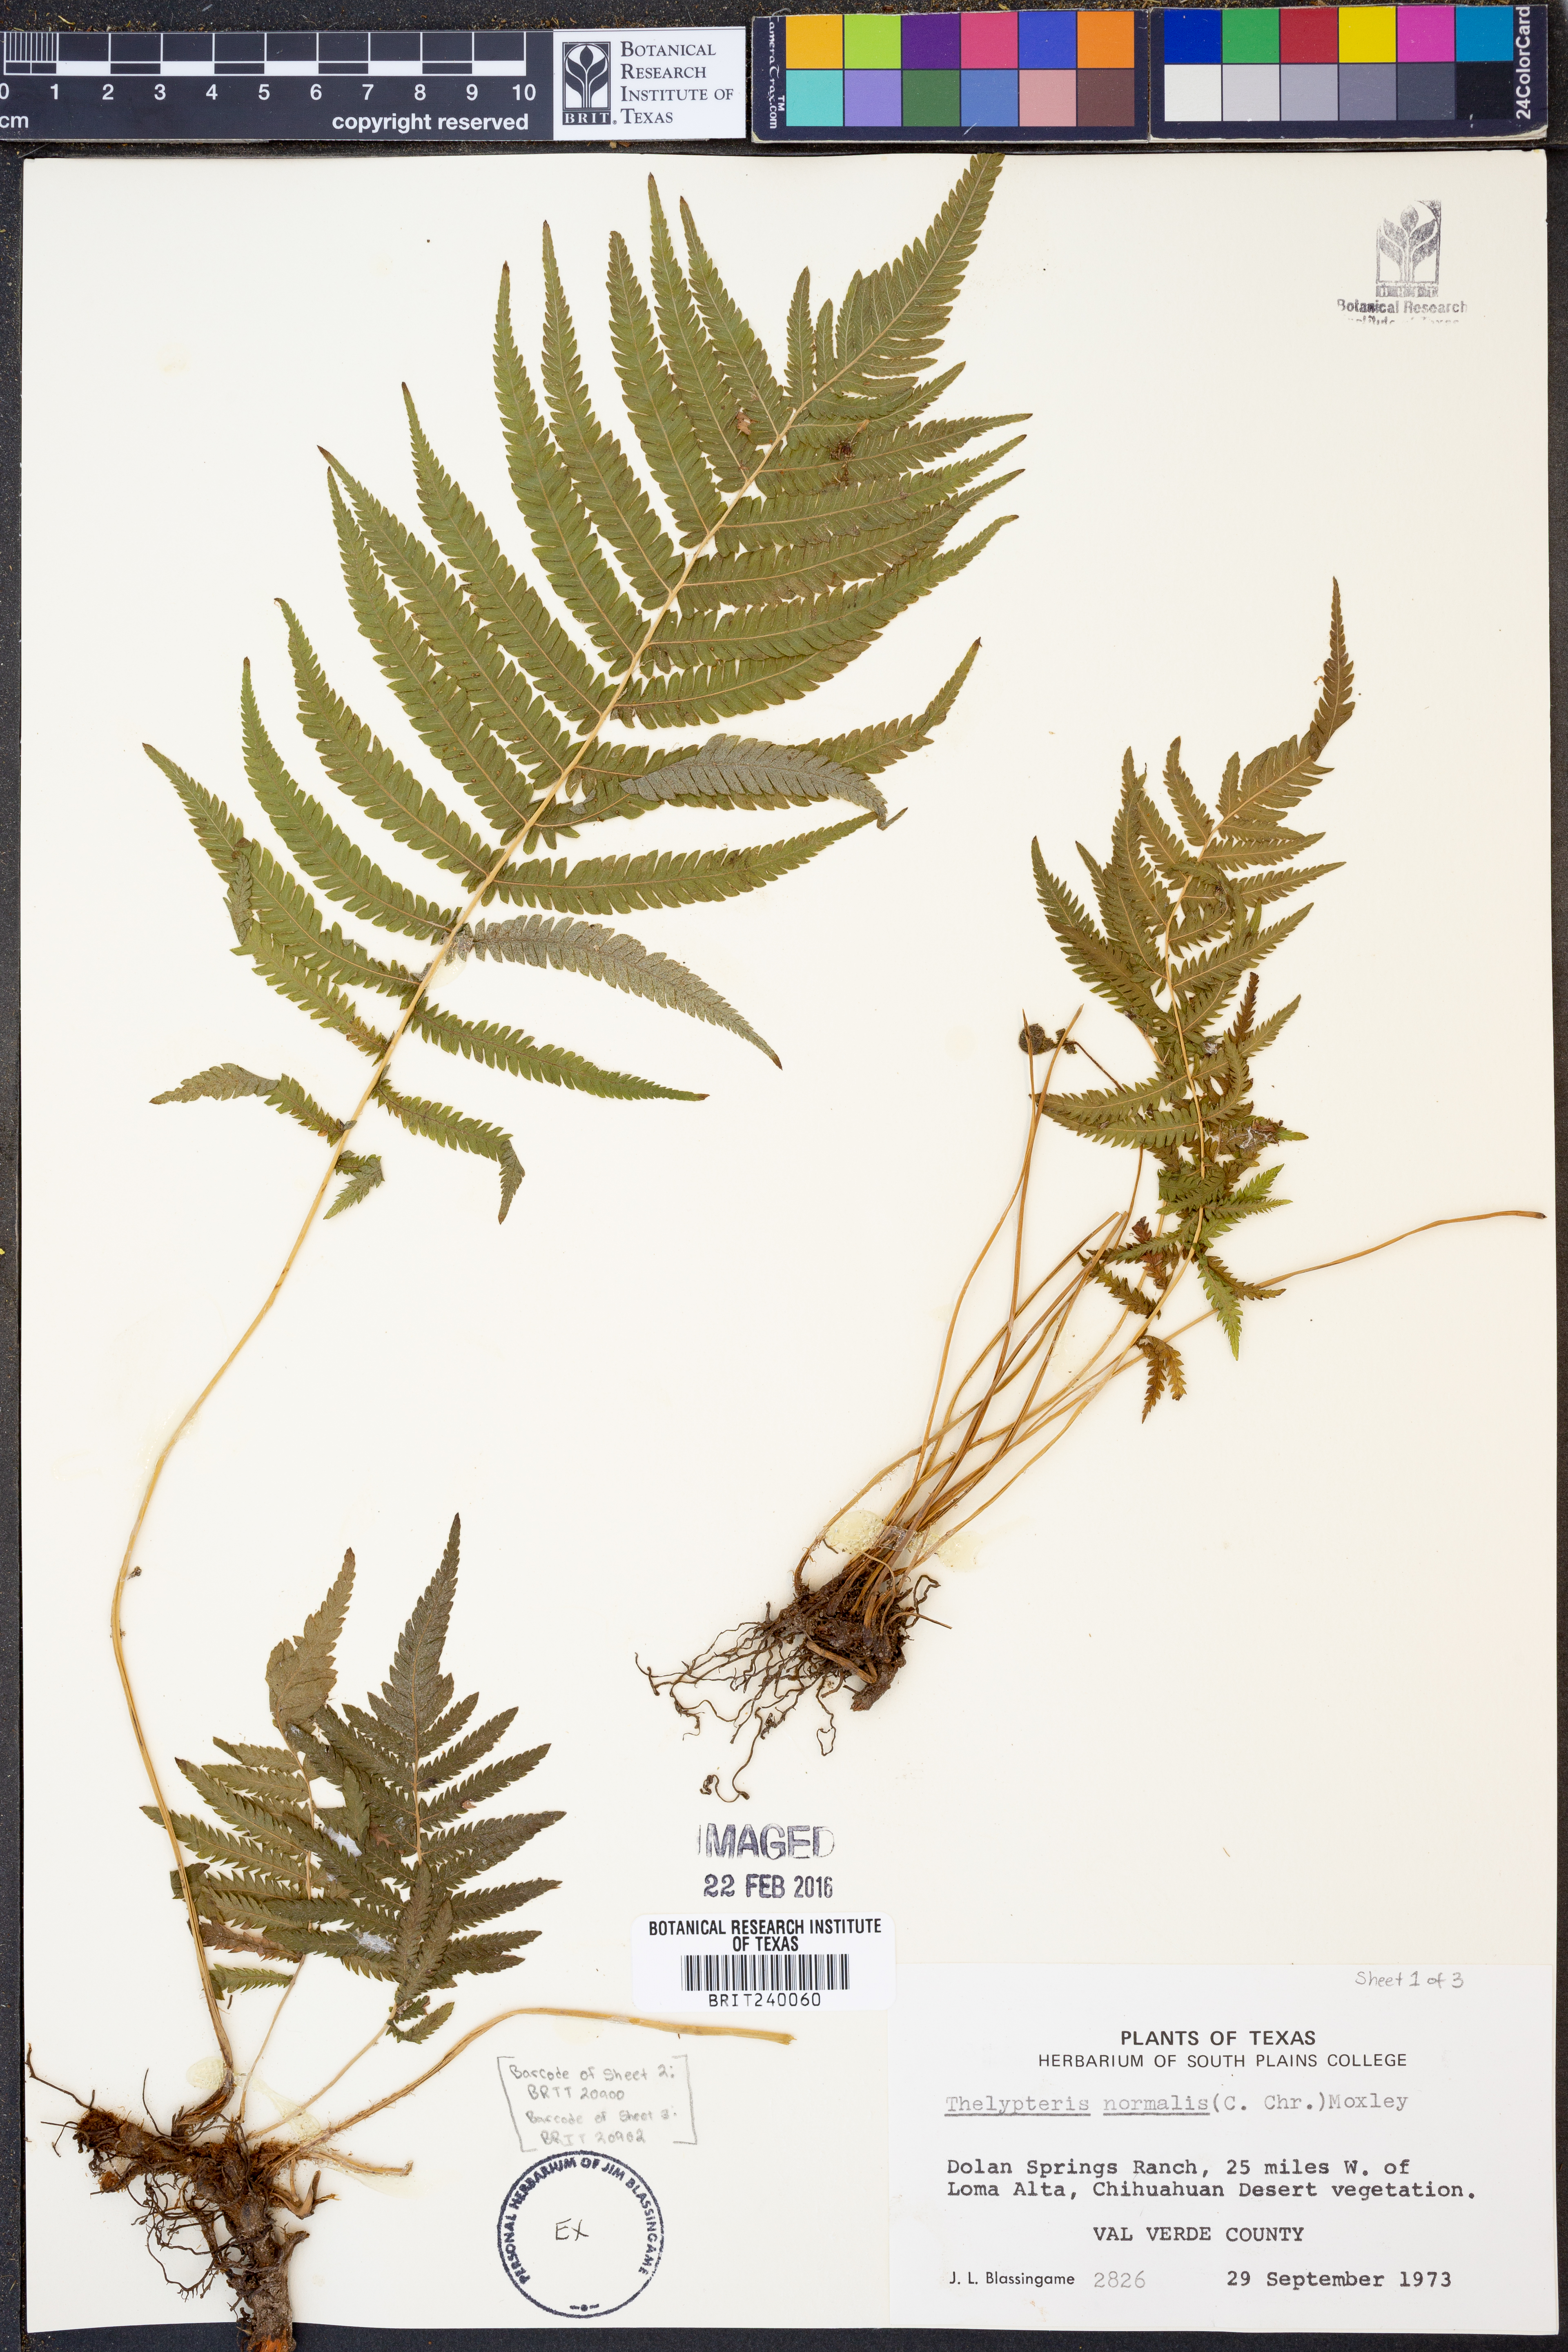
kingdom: Plantae
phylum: Tracheophyta
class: Polypodiopsida
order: Polypodiales
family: Thelypteridaceae
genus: Pelazoneuron
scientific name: Pelazoneuron kunthii
